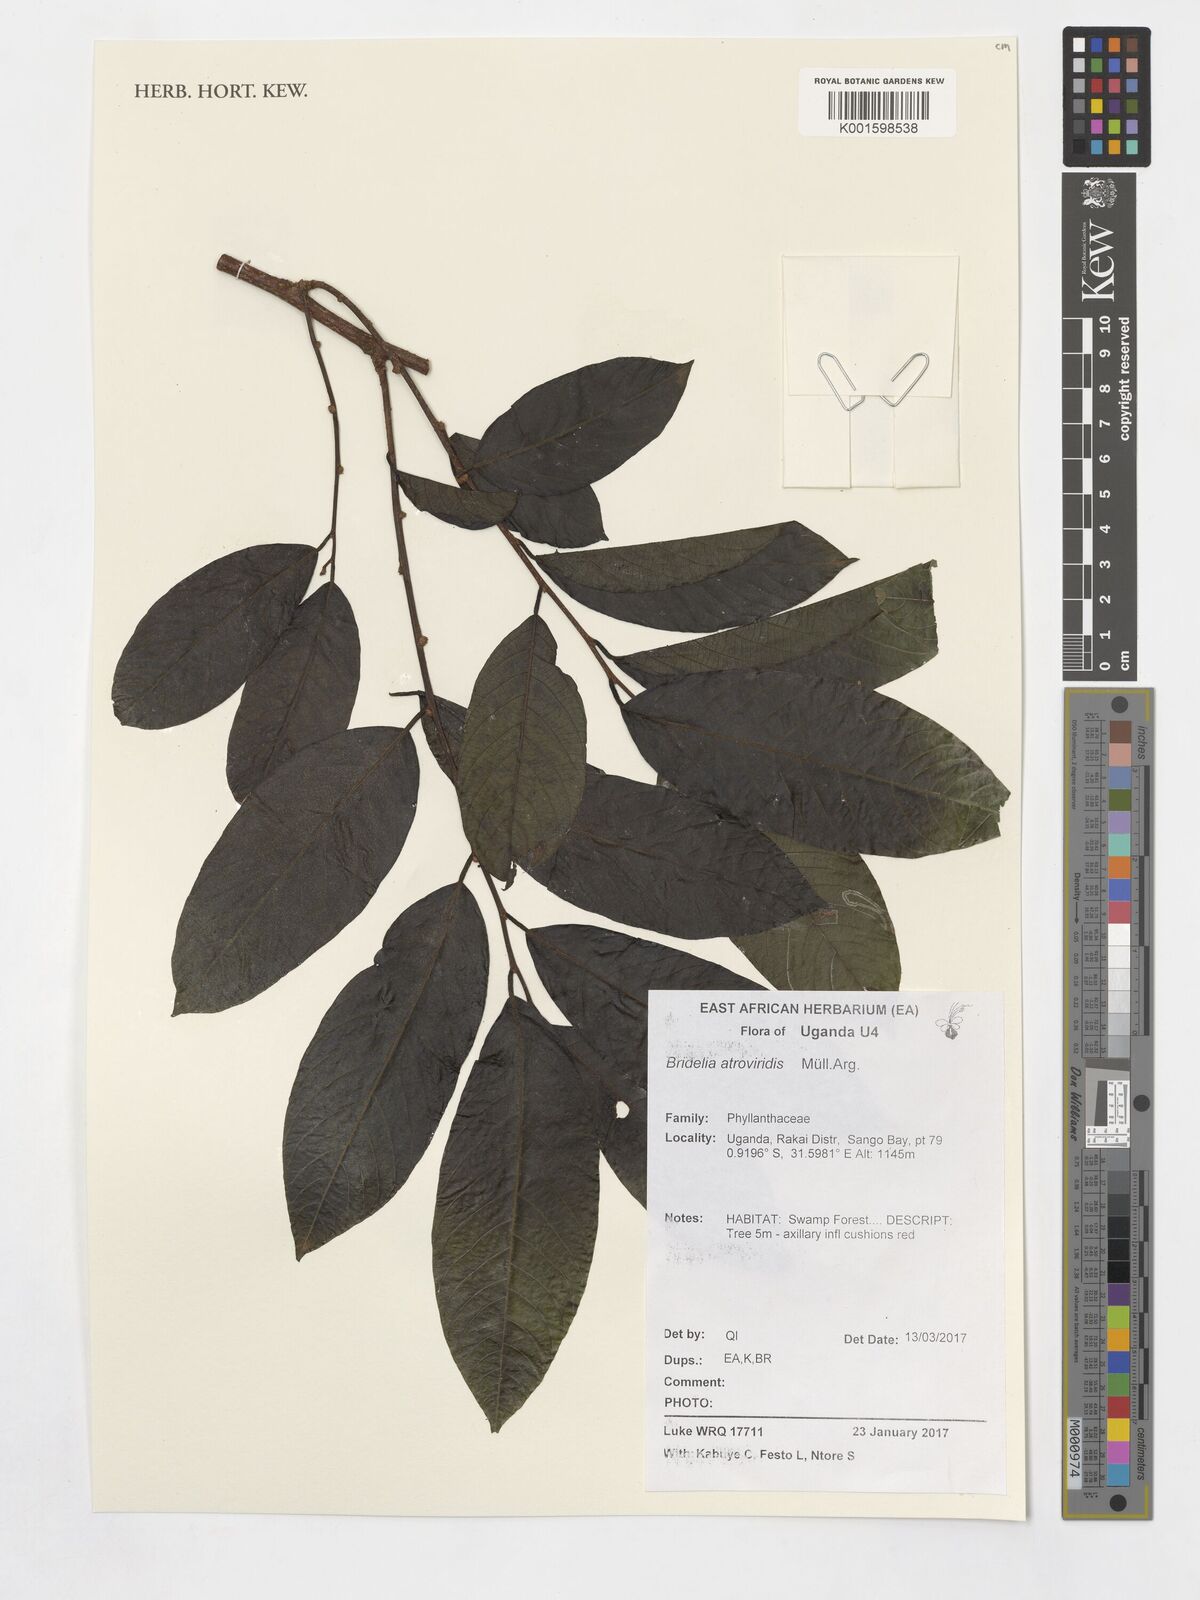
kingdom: Plantae
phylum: Tracheophyta
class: Magnoliopsida
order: Malpighiales
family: Phyllanthaceae
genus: Bridelia
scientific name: Bridelia atroviridis
